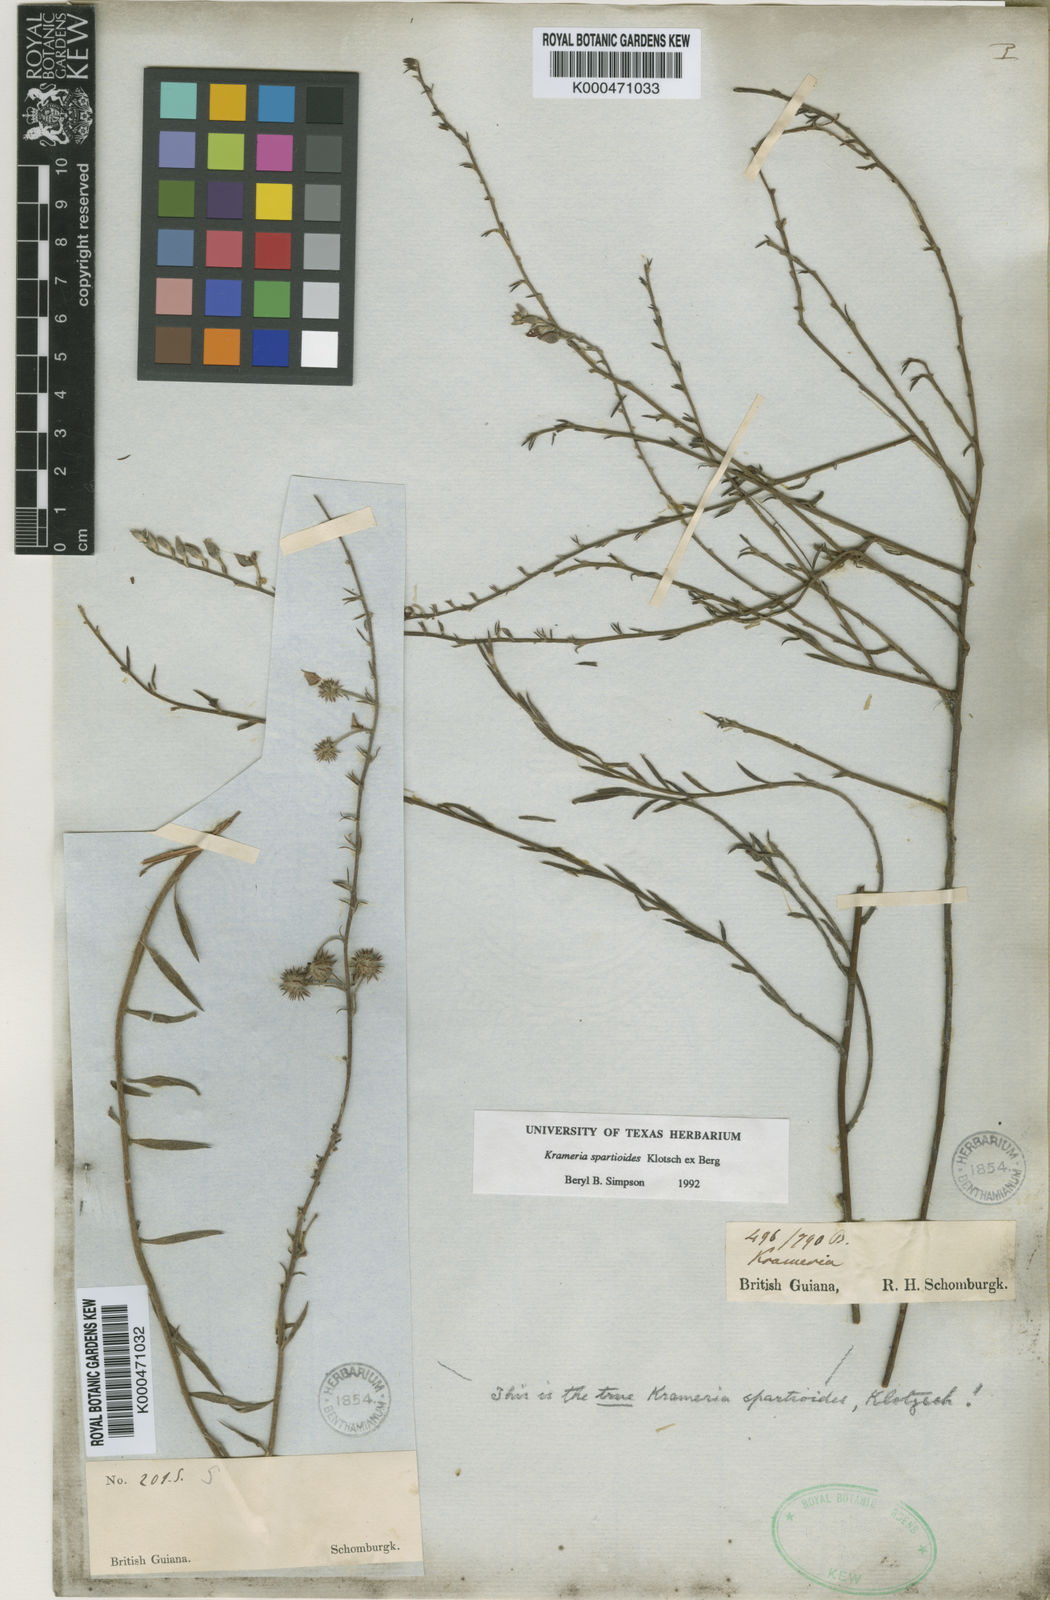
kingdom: Plantae
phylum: Tracheophyta
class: Magnoliopsida
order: Zygophyllales
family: Krameriaceae
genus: Krameria
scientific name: Krameria spartioides
